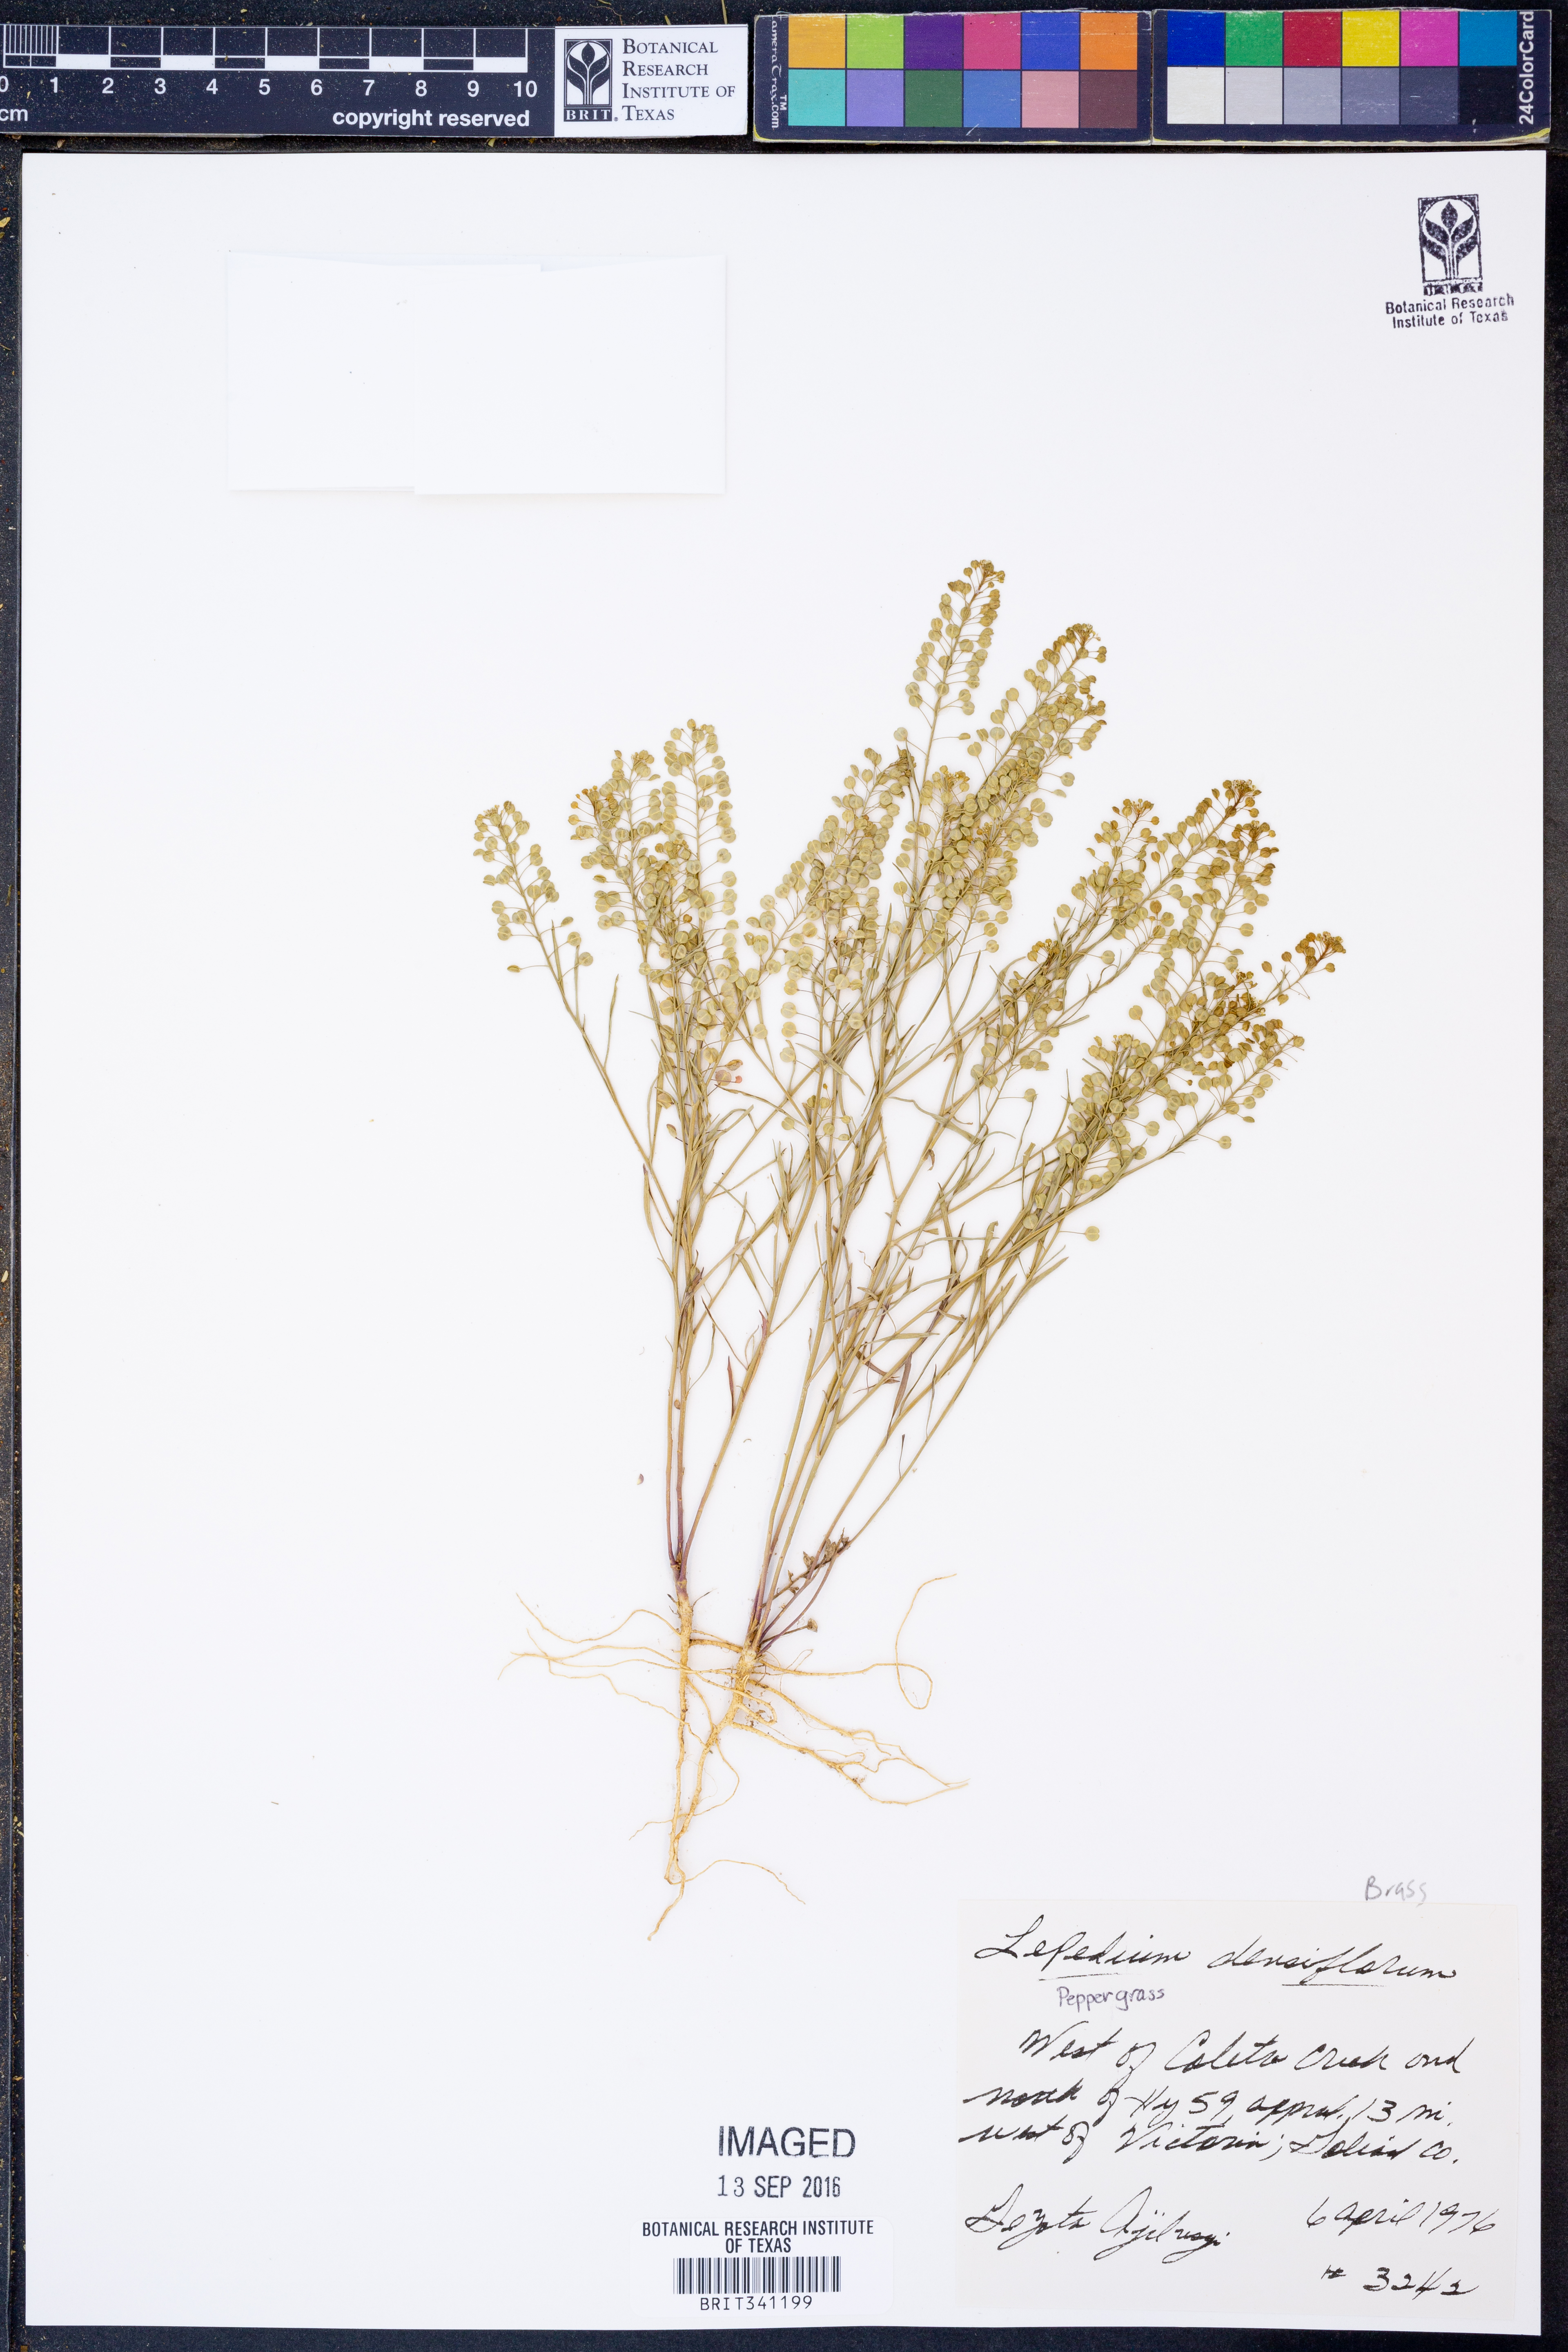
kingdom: Plantae
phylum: Tracheophyta
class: Magnoliopsida
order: Brassicales
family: Brassicaceae
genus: Lepidium
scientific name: Lepidium densiflorum
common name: Miner's pepperwort
